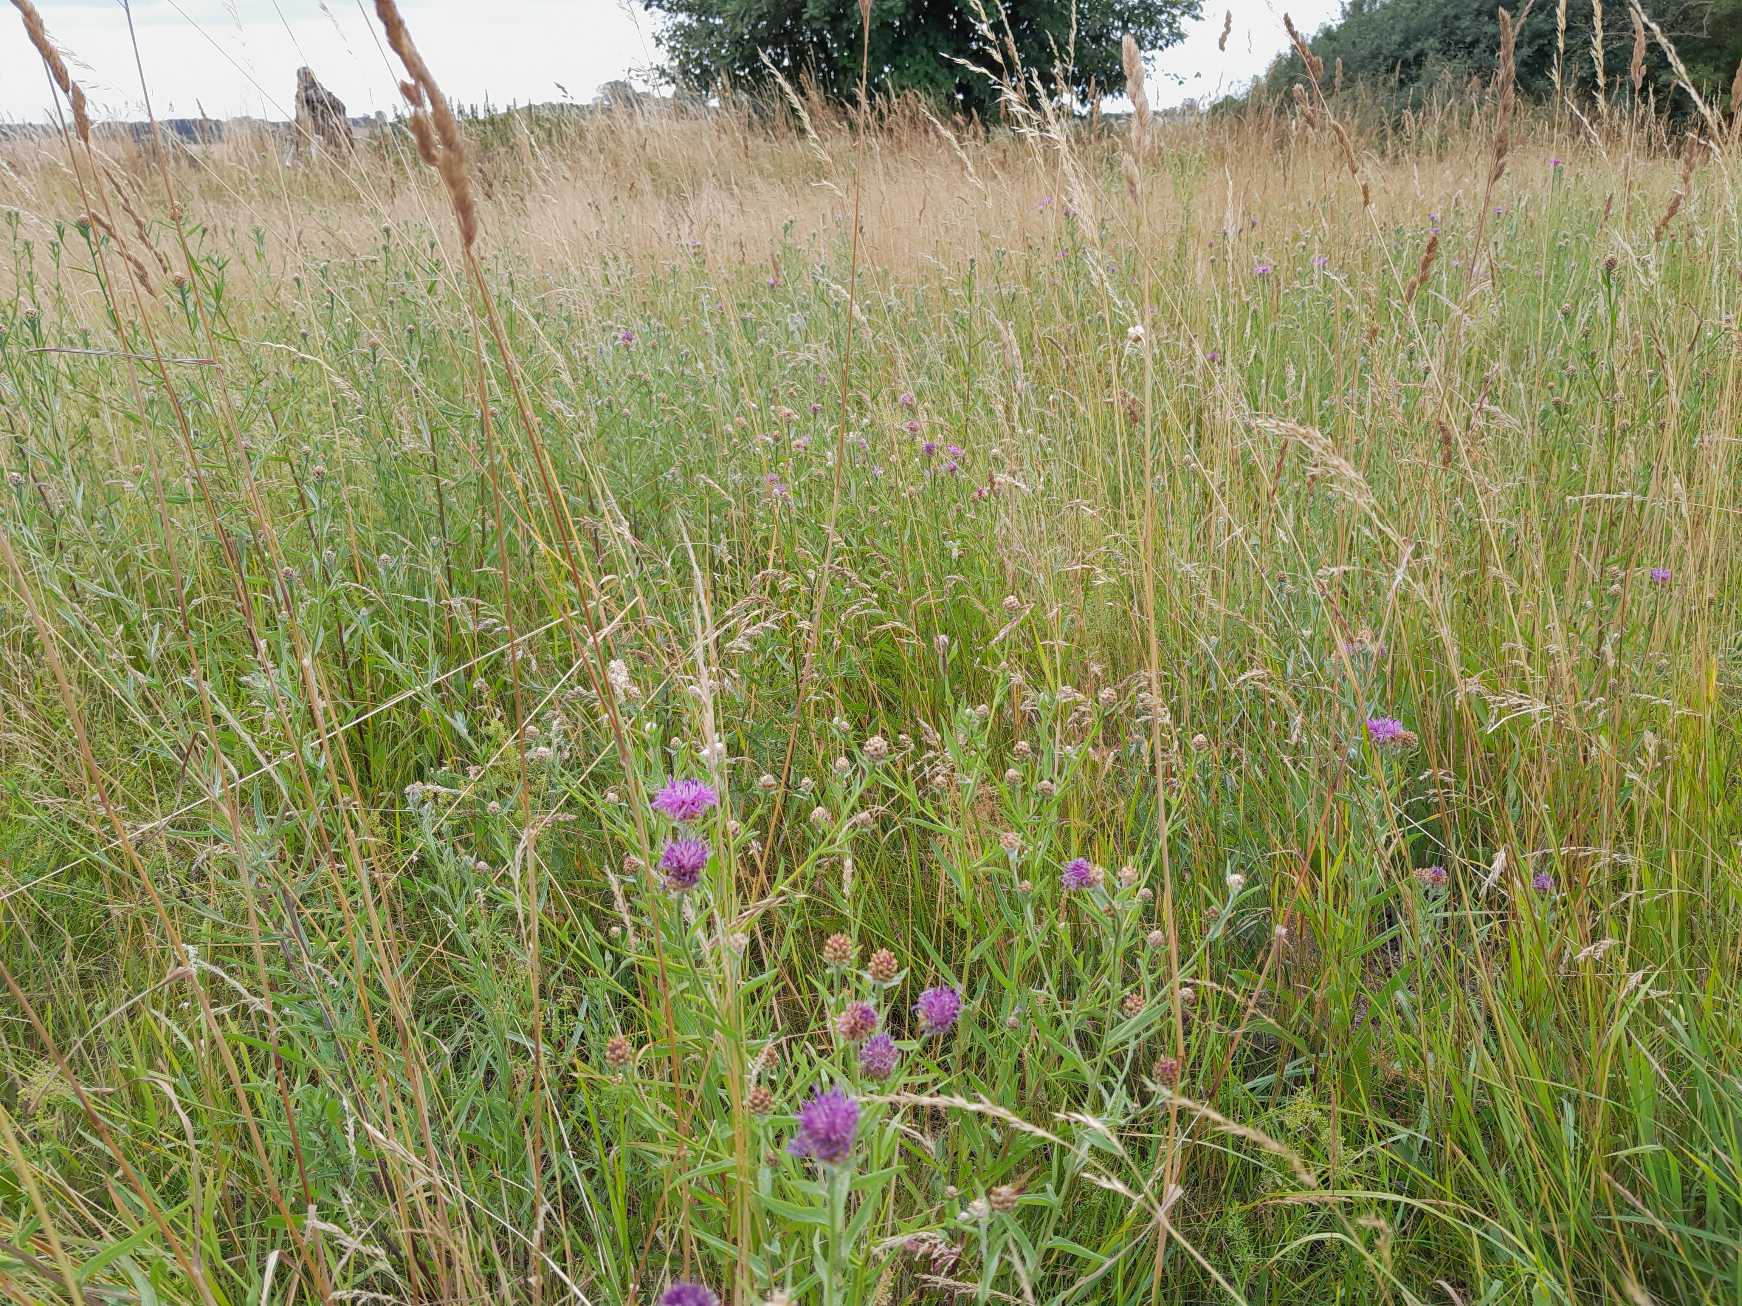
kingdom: Plantae
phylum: Tracheophyta
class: Magnoliopsida
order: Asterales
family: Asteraceae
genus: Centaurea
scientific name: Centaurea jacea
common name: Almindelig knopurt
